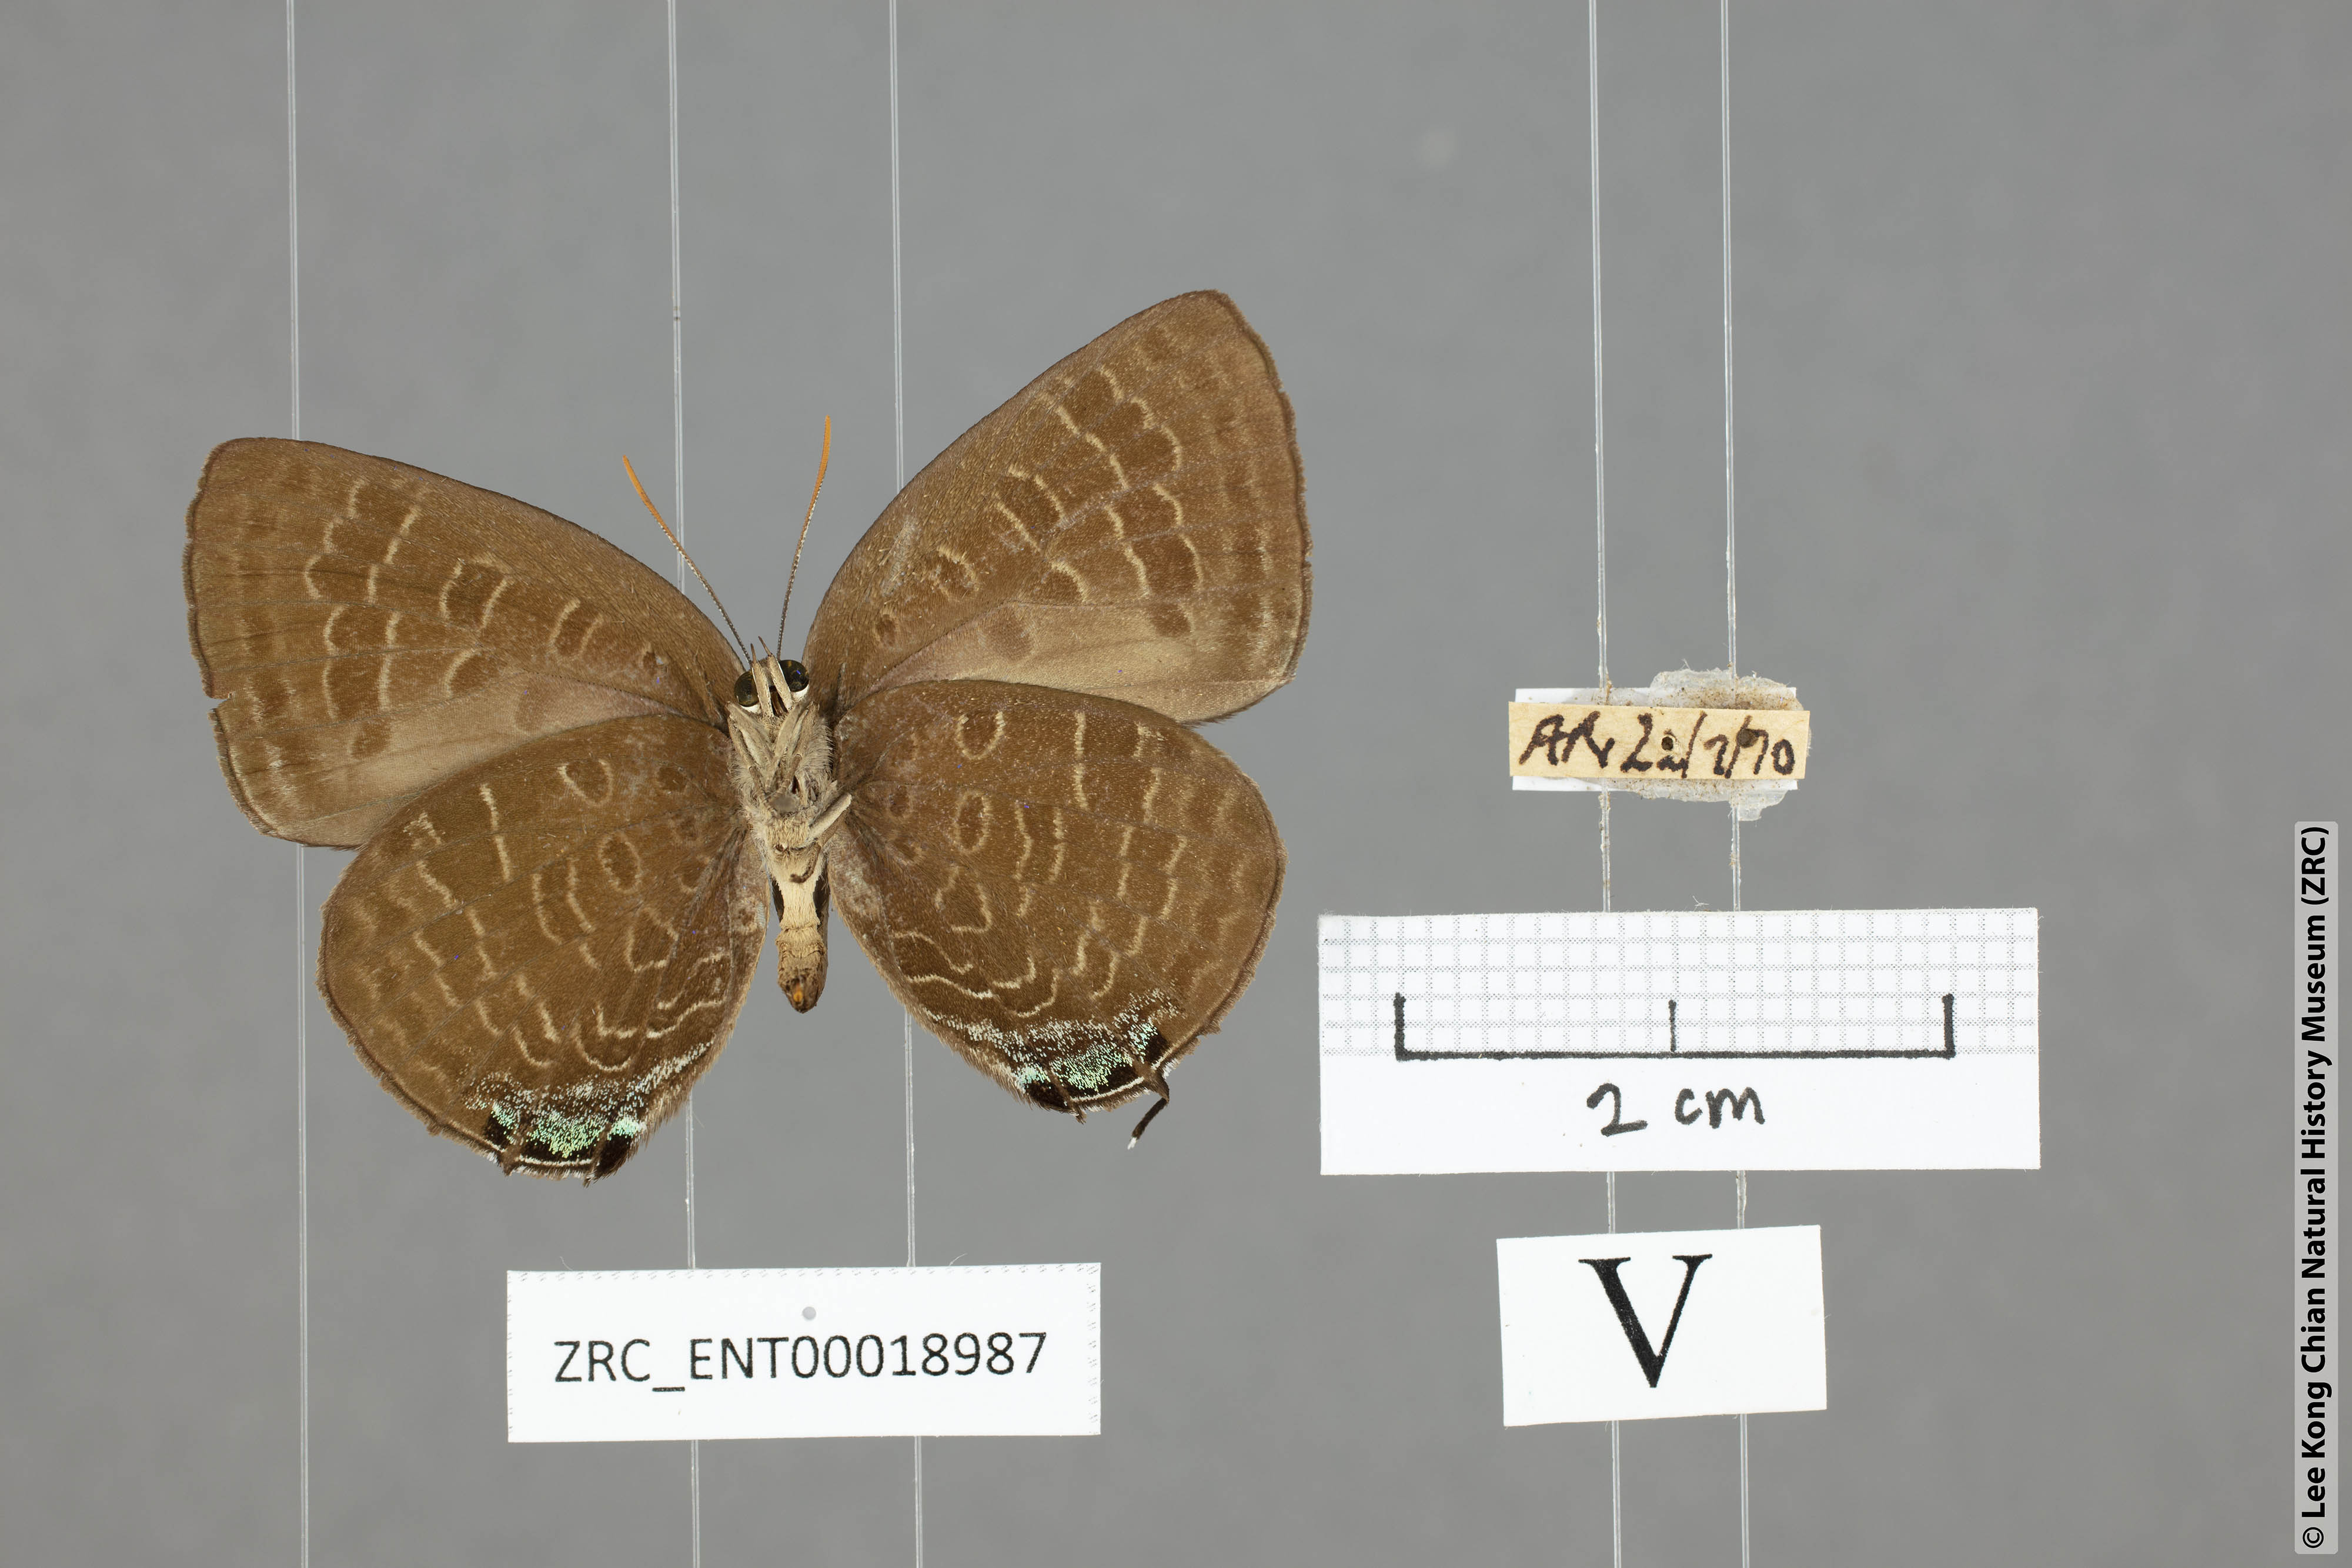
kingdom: Animalia
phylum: Arthropoda
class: Insecta
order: Lepidoptera
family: Lycaenidae
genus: Arhopala
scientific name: Arhopala ace
